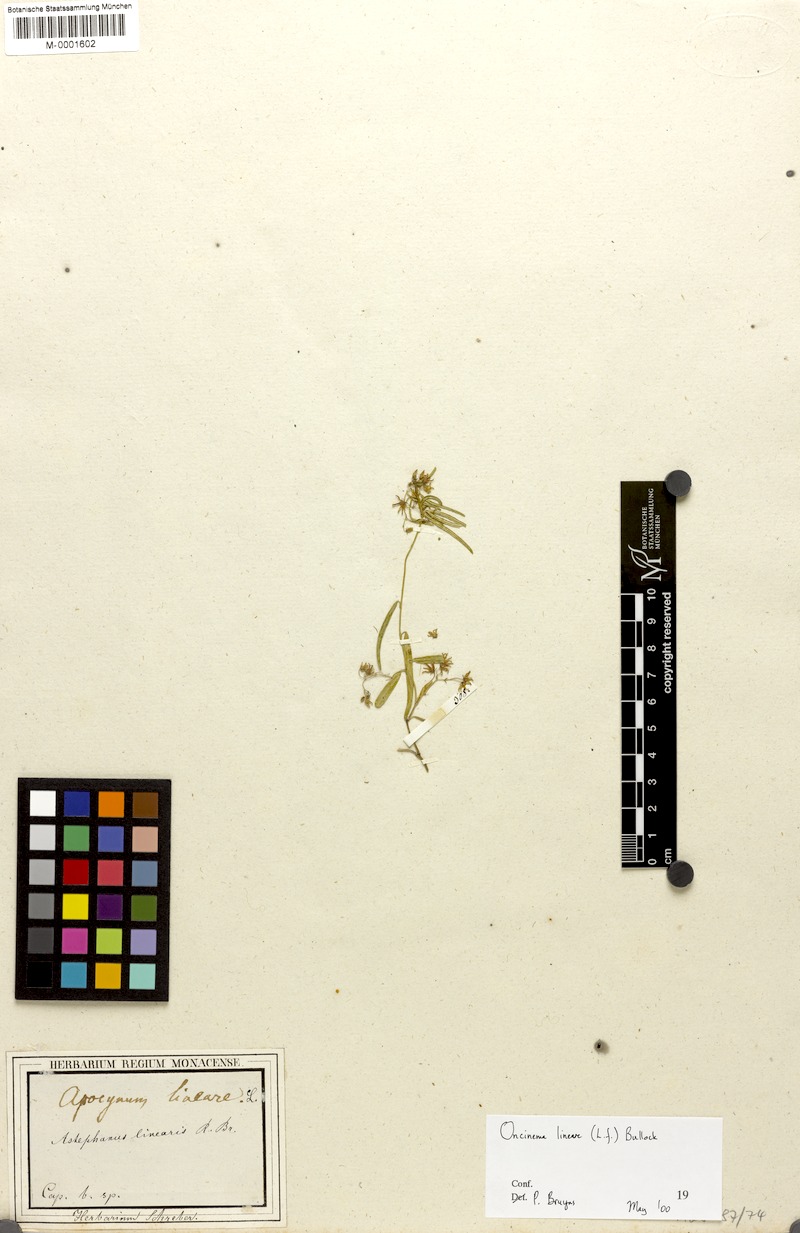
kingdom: Plantae
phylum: Tracheophyta
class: Magnoliopsida
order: Gentianales
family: Apocynaceae
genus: Oncinema
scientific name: Oncinema lineare
